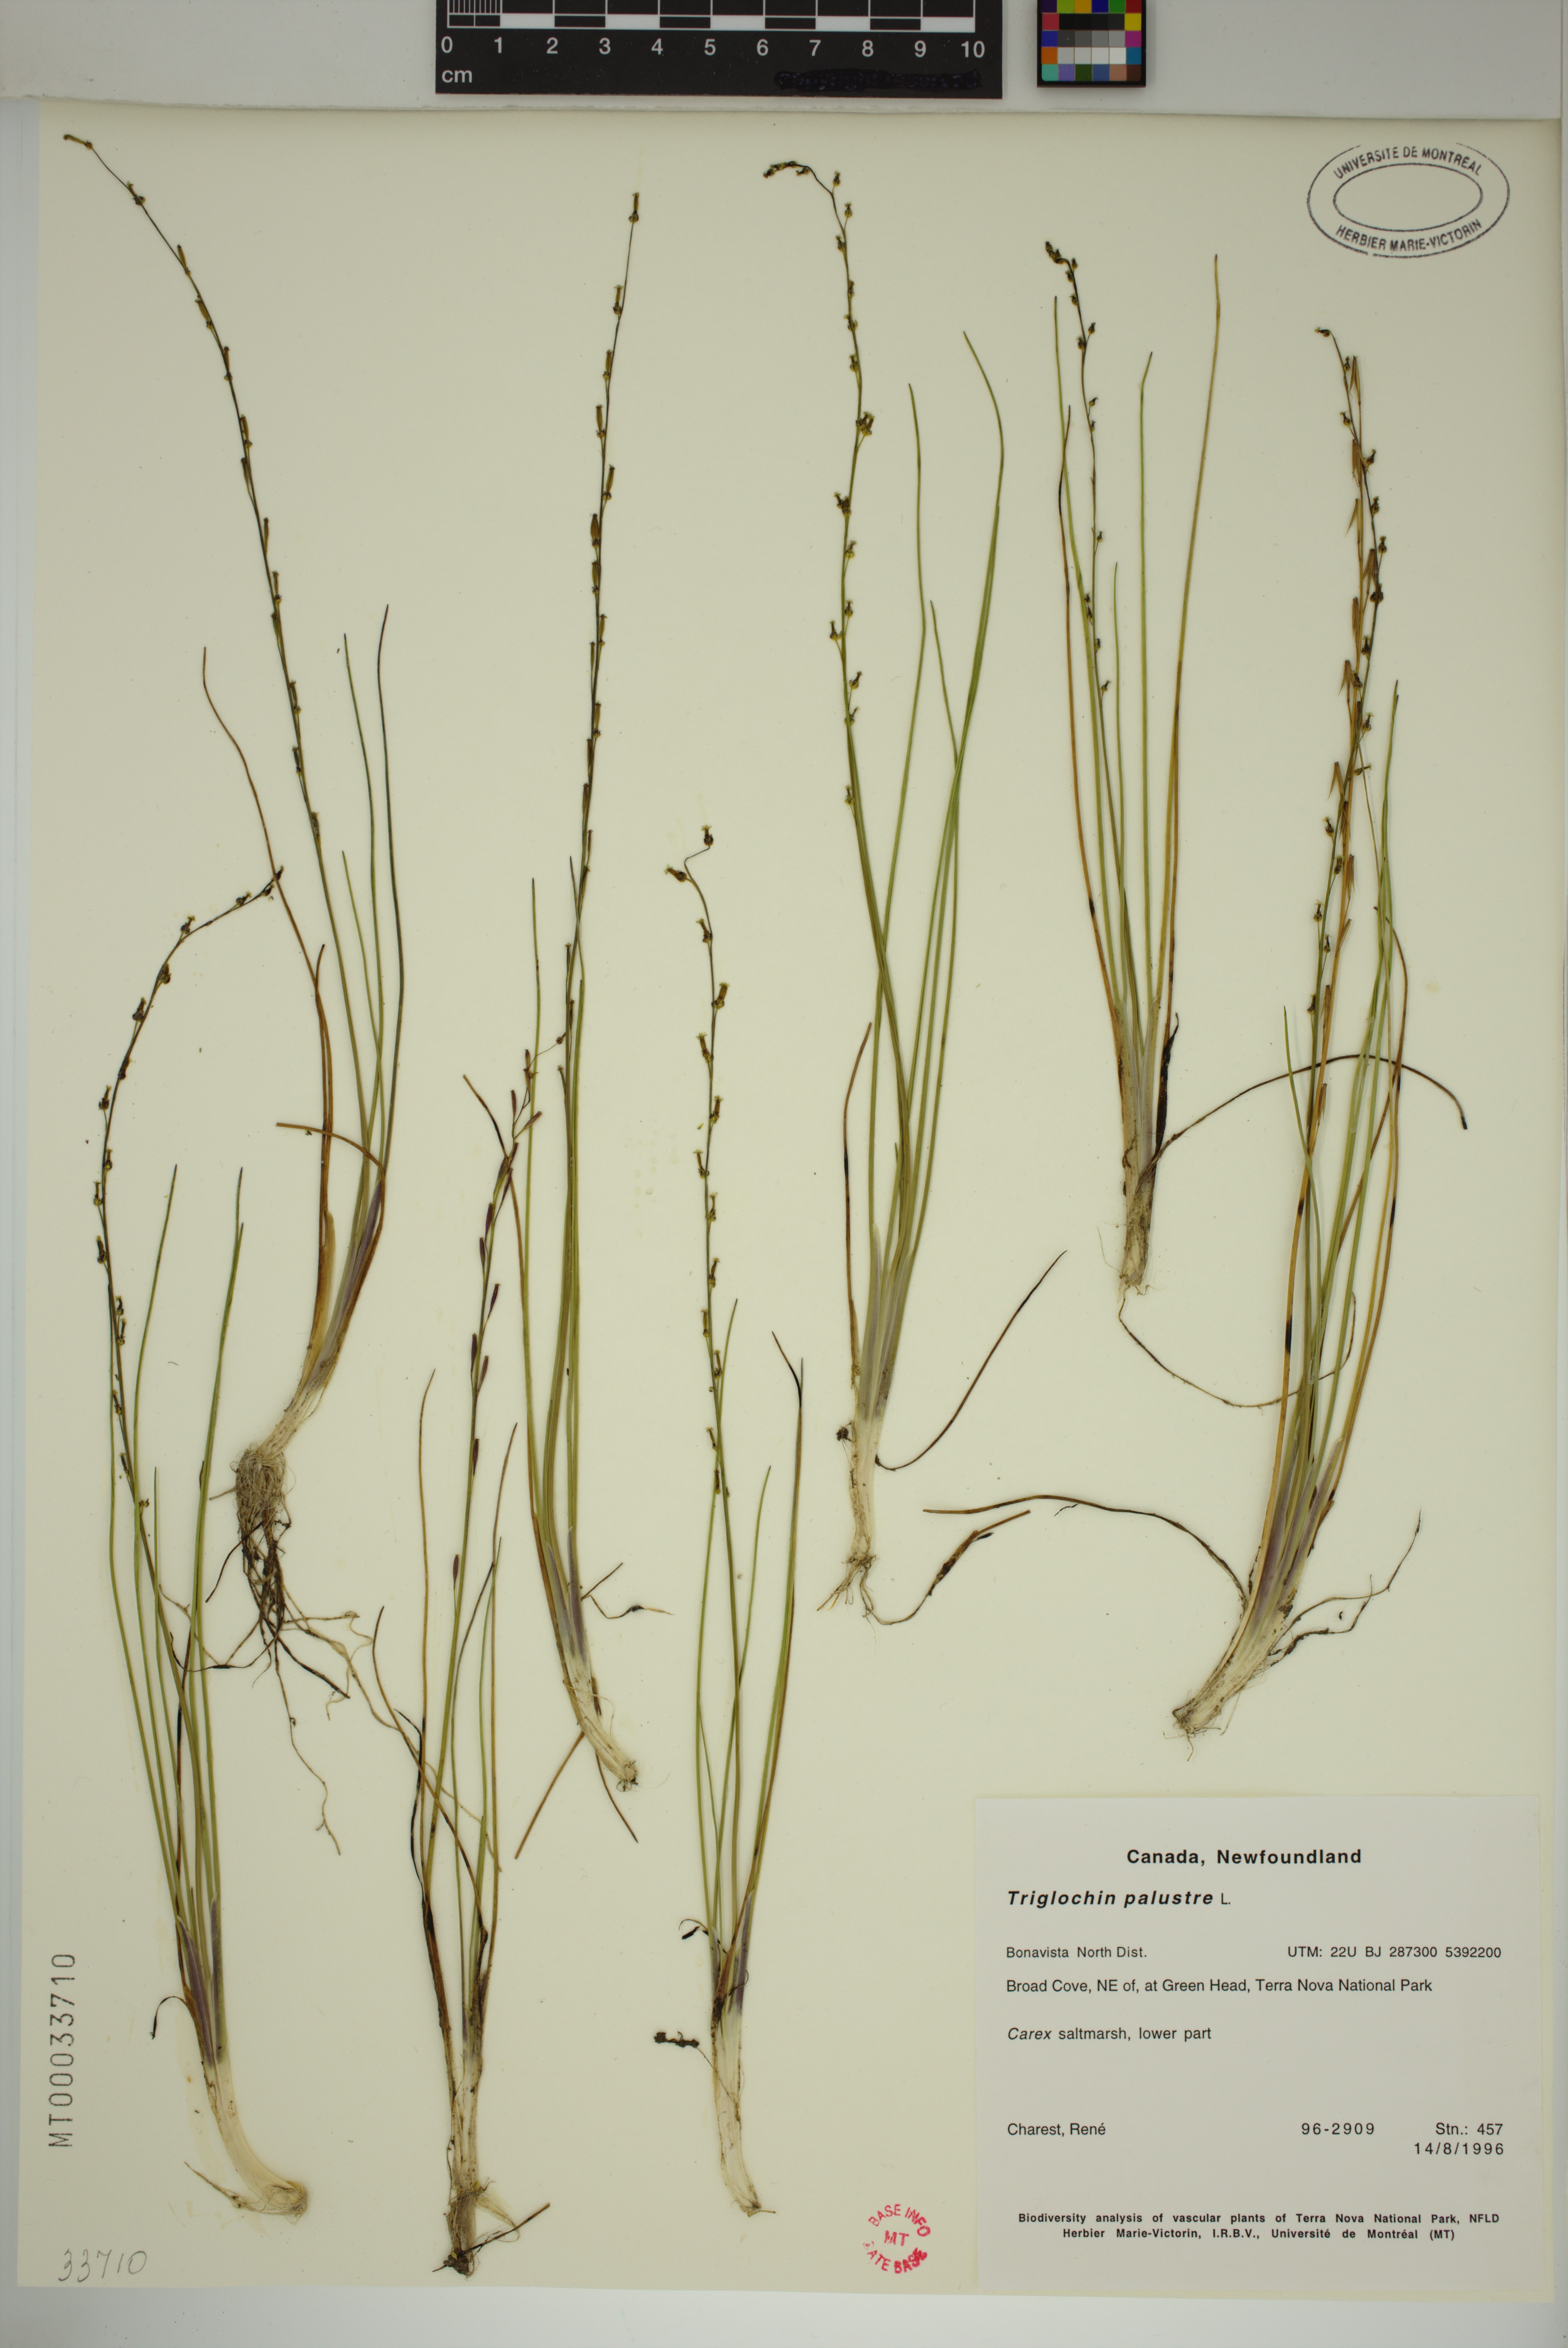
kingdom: Plantae
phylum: Tracheophyta
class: Liliopsida
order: Alismatales
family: Juncaginaceae
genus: Triglochin
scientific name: Triglochin palustris
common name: Marsh arrowgrass
